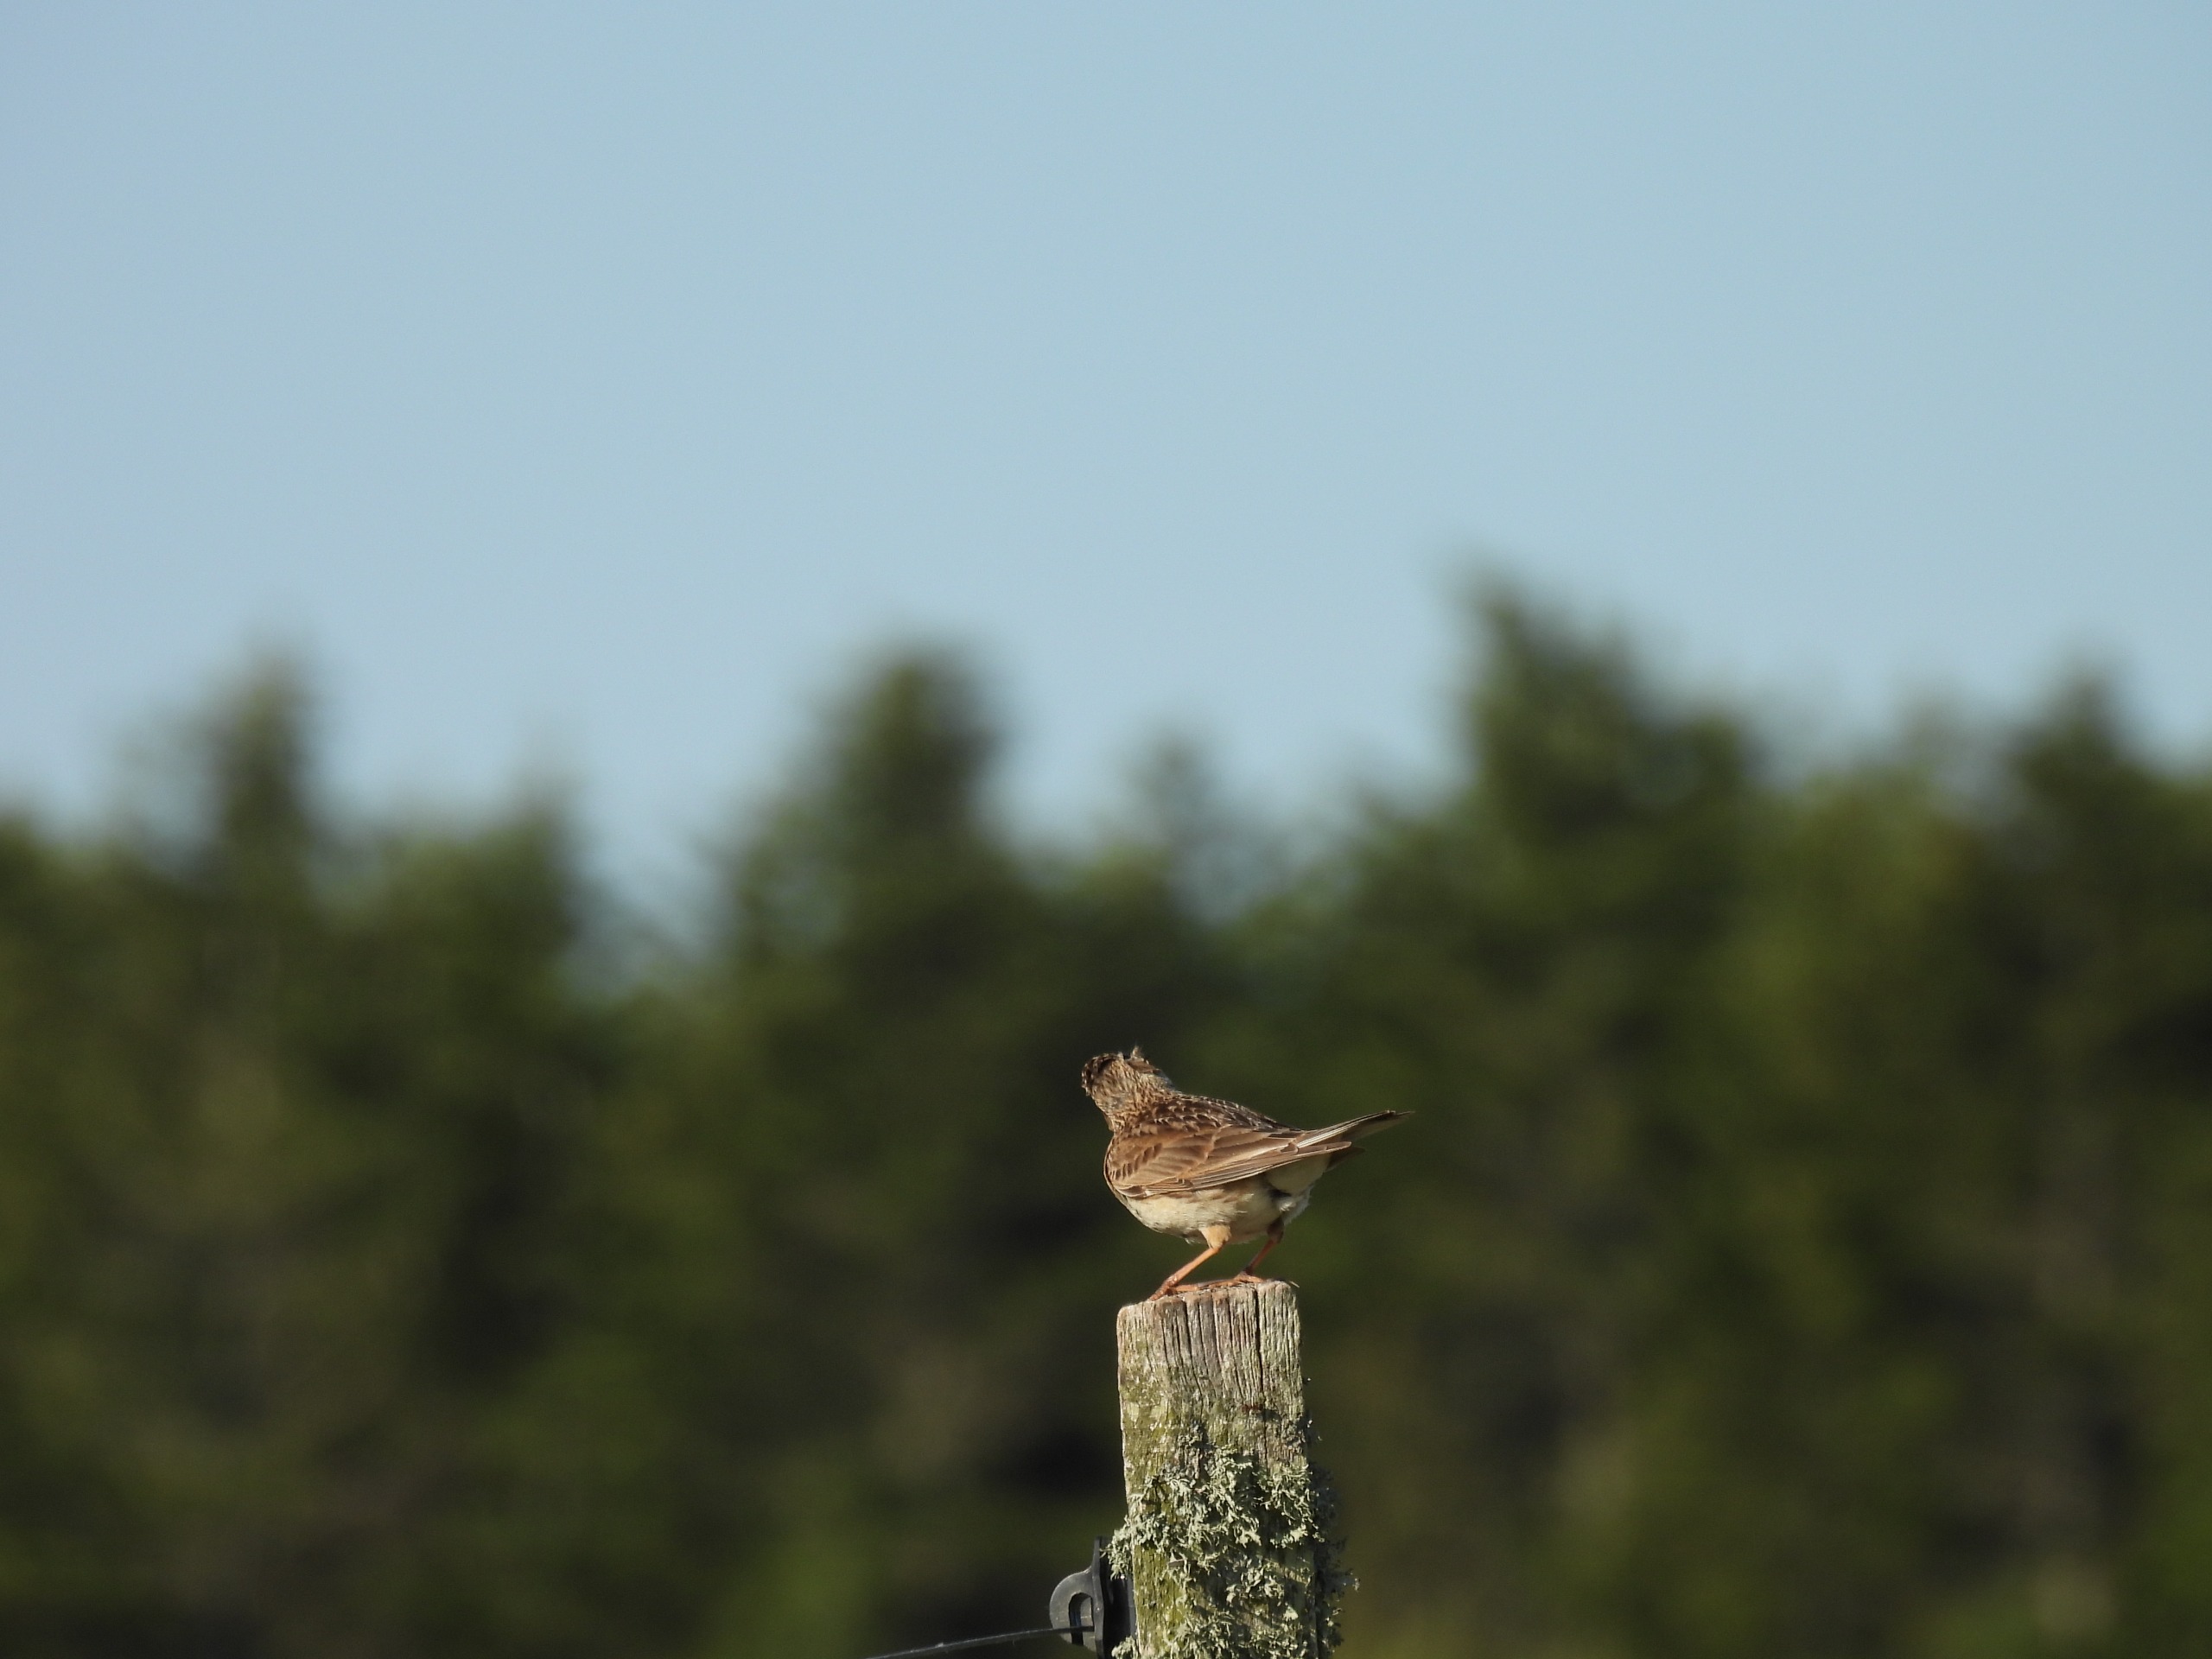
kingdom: Animalia
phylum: Chordata
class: Aves
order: Passeriformes
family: Alaudidae
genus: Alauda
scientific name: Alauda arvensis
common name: Sanglærke
